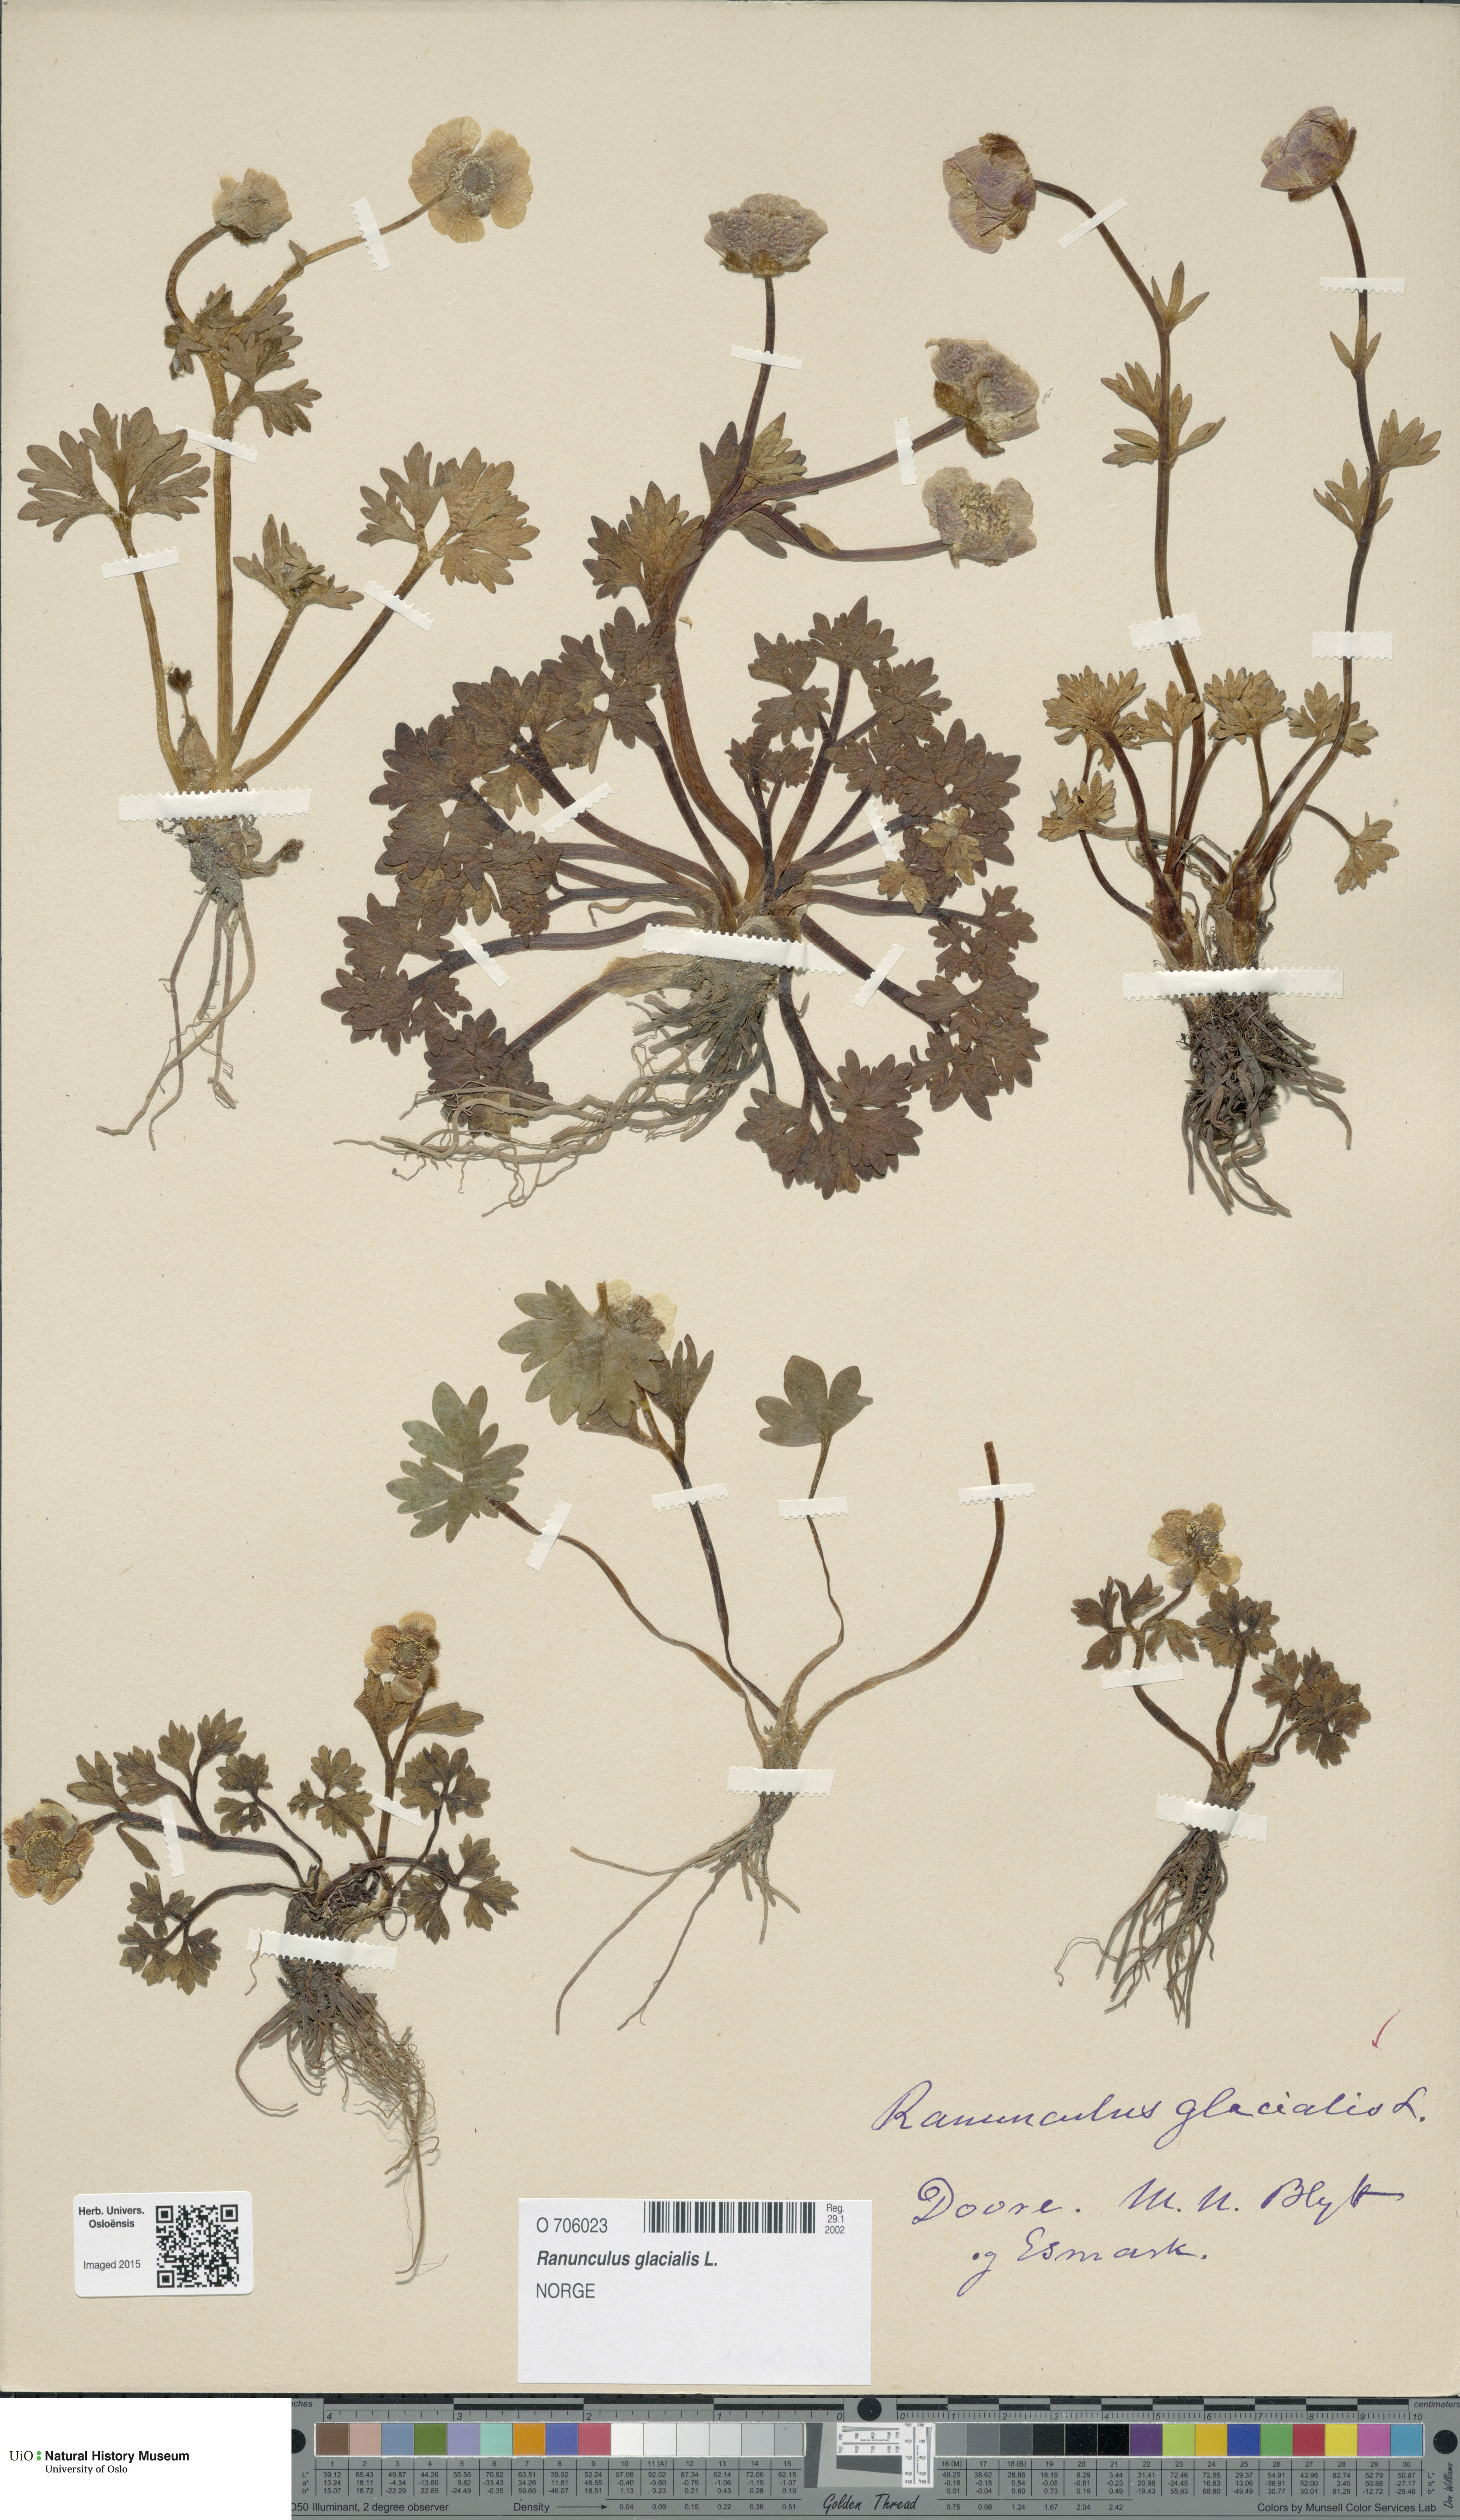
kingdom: Plantae
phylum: Tracheophyta
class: Magnoliopsida
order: Ranunculales
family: Ranunculaceae
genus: Ranunculus
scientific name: Ranunculus glacialis
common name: Glacier buttercup
